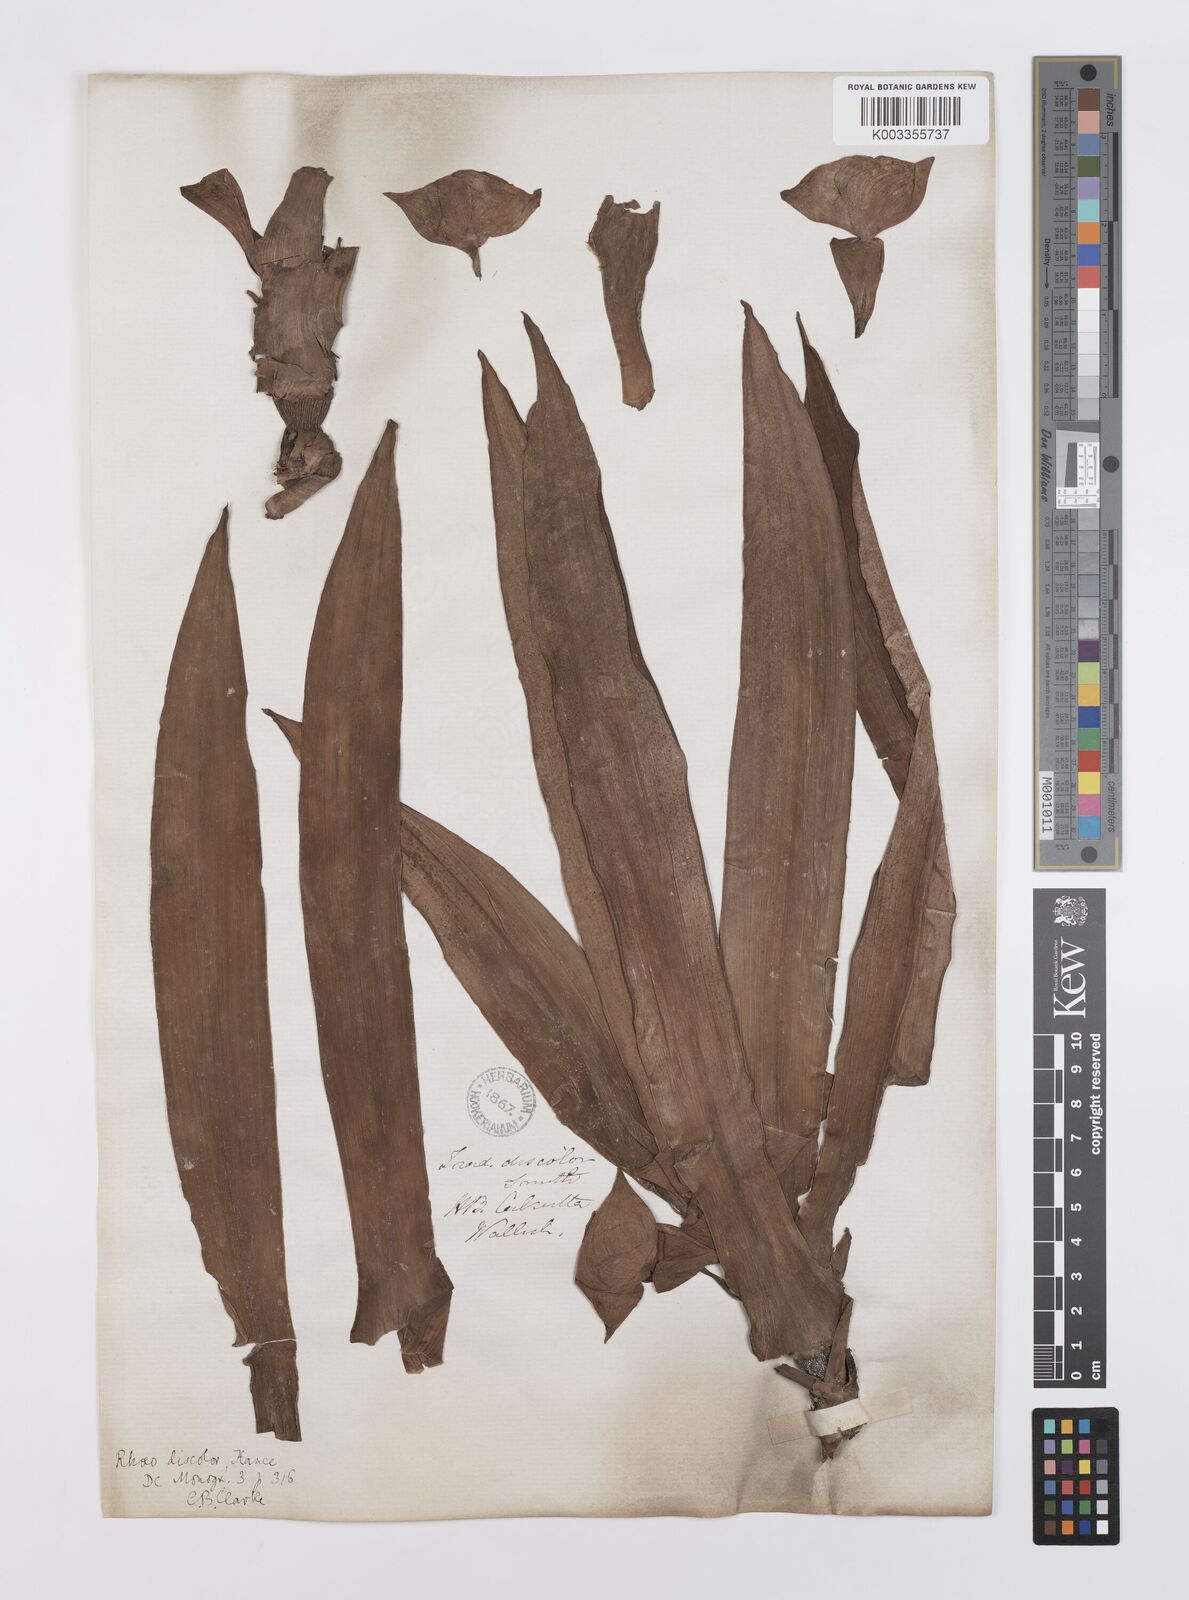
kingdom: Plantae
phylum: Tracheophyta
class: Liliopsida
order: Commelinales
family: Commelinaceae
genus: Tradescantia
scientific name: Tradescantia spathacea
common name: Boatlily
